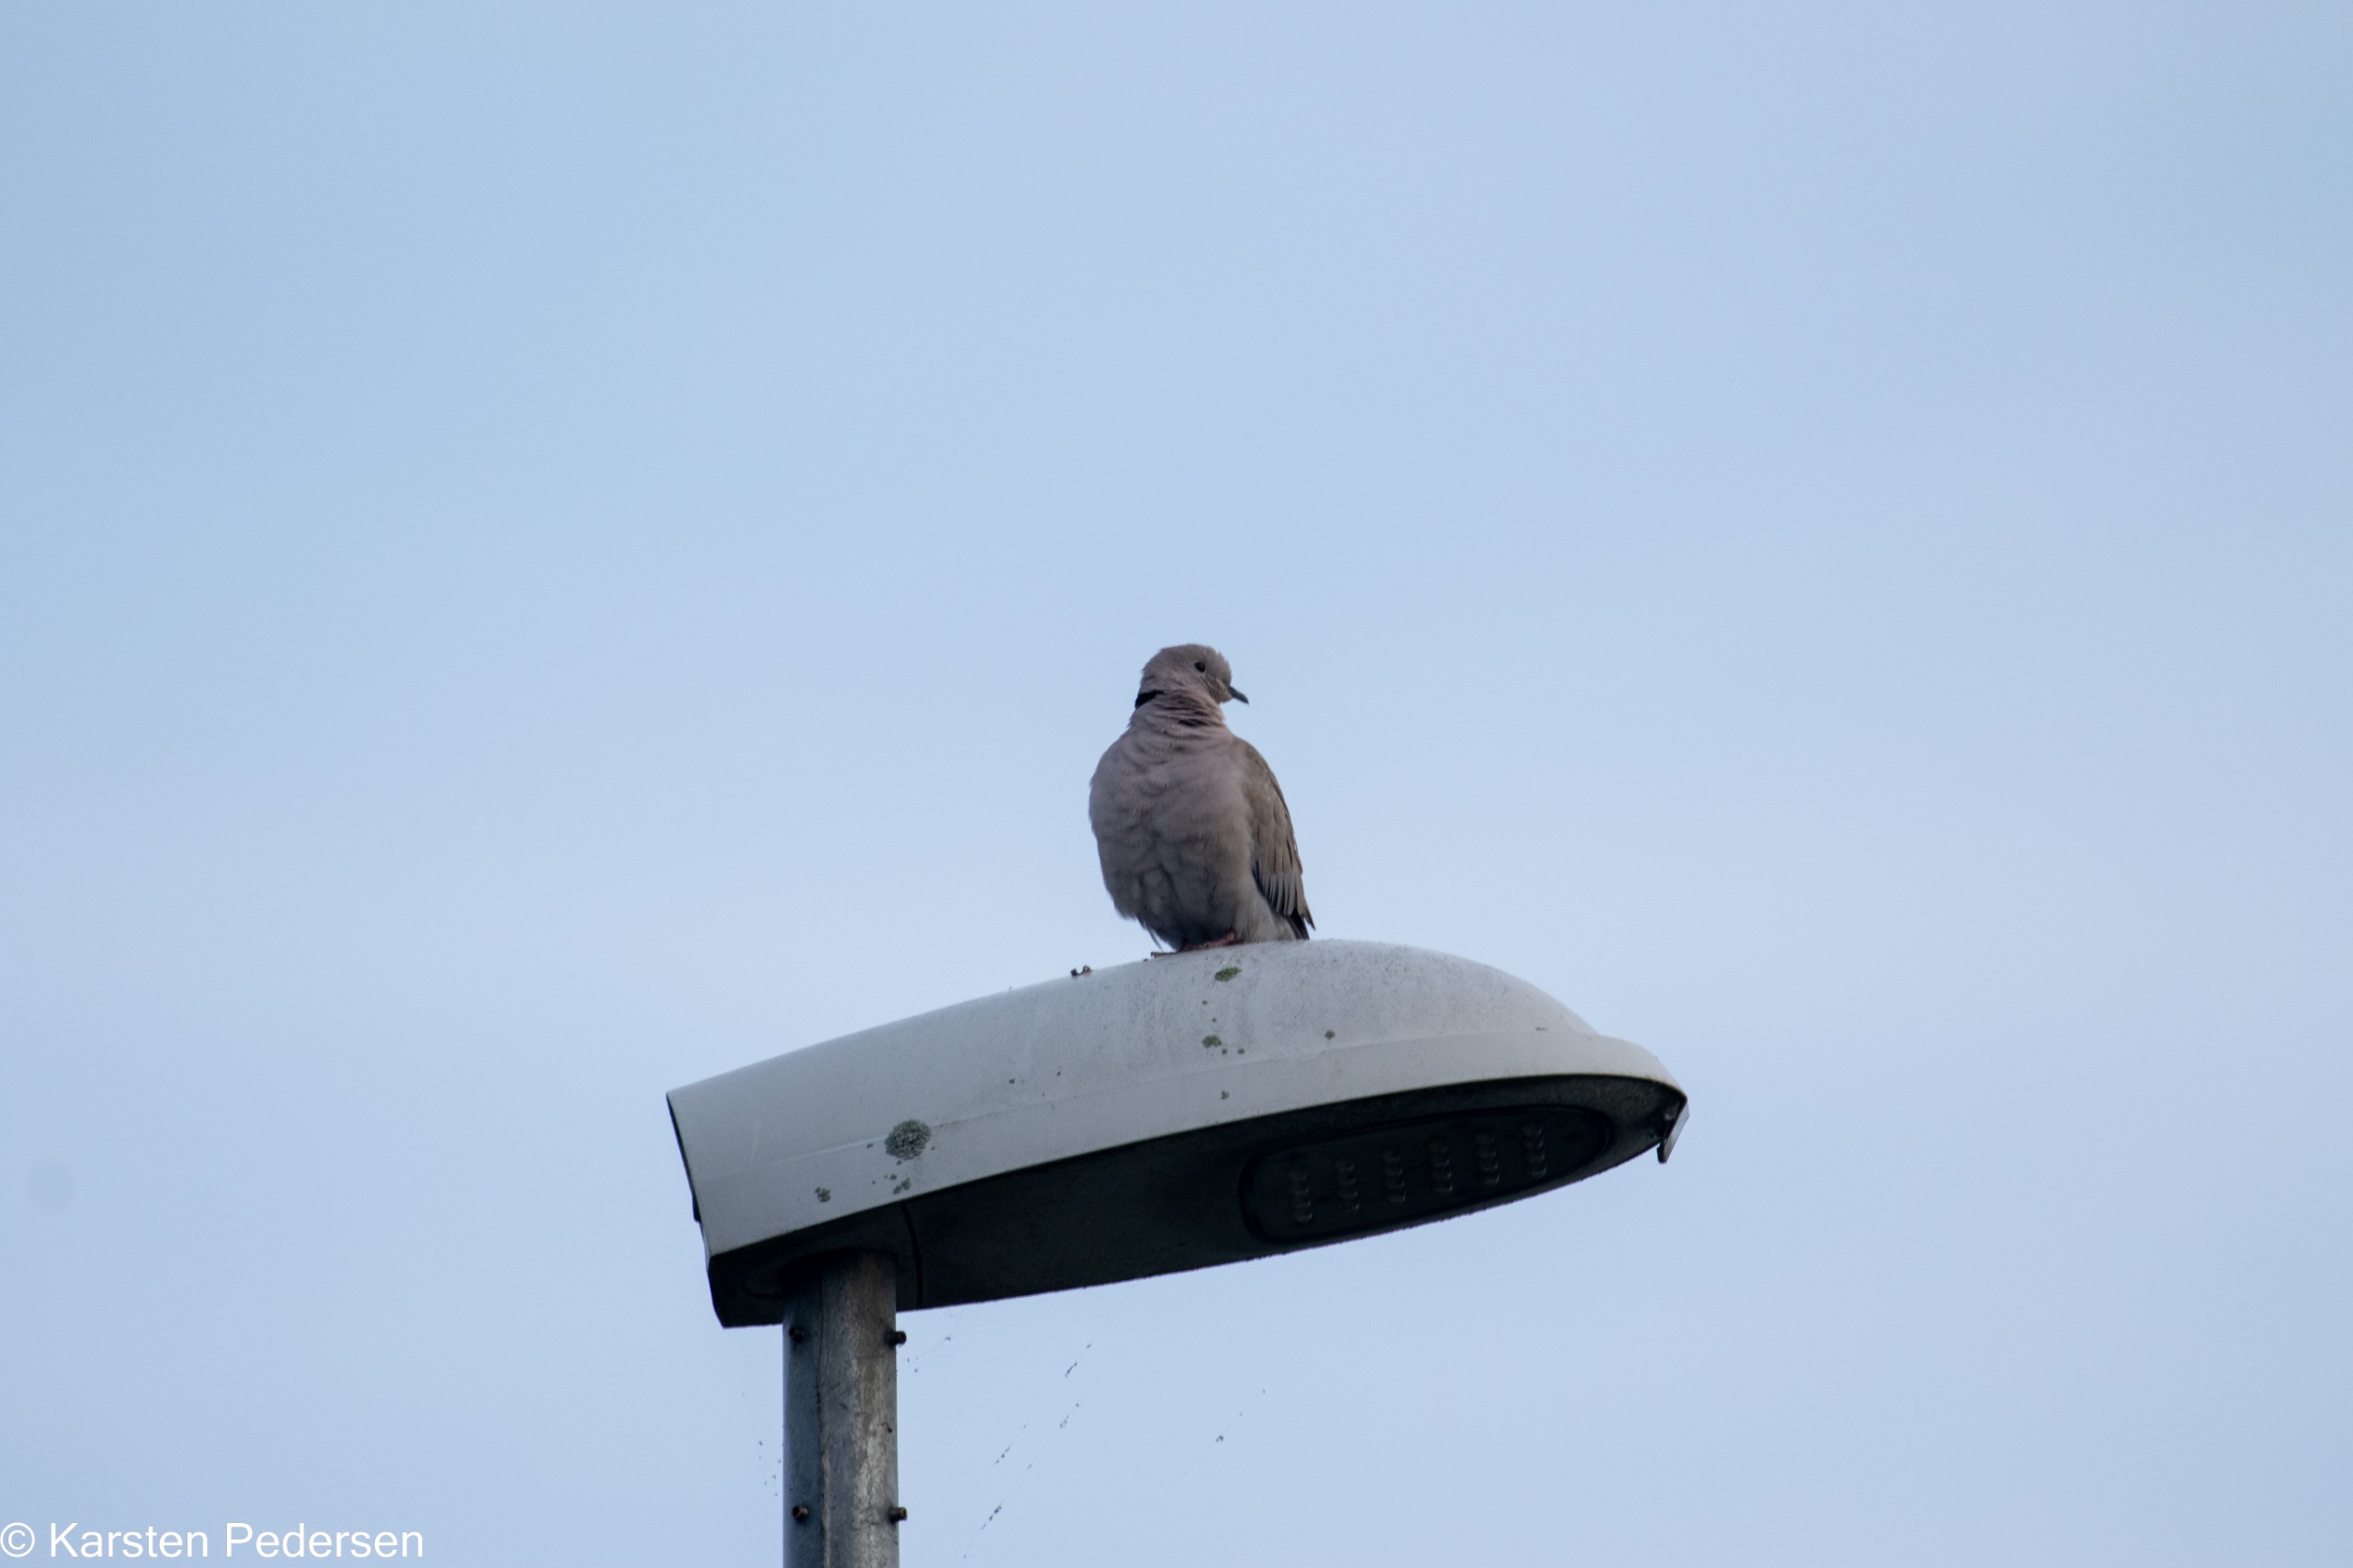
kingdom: Animalia
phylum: Chordata
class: Aves
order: Columbiformes
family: Columbidae
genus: Streptopelia
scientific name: Streptopelia decaocto
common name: Tyrkerdue
